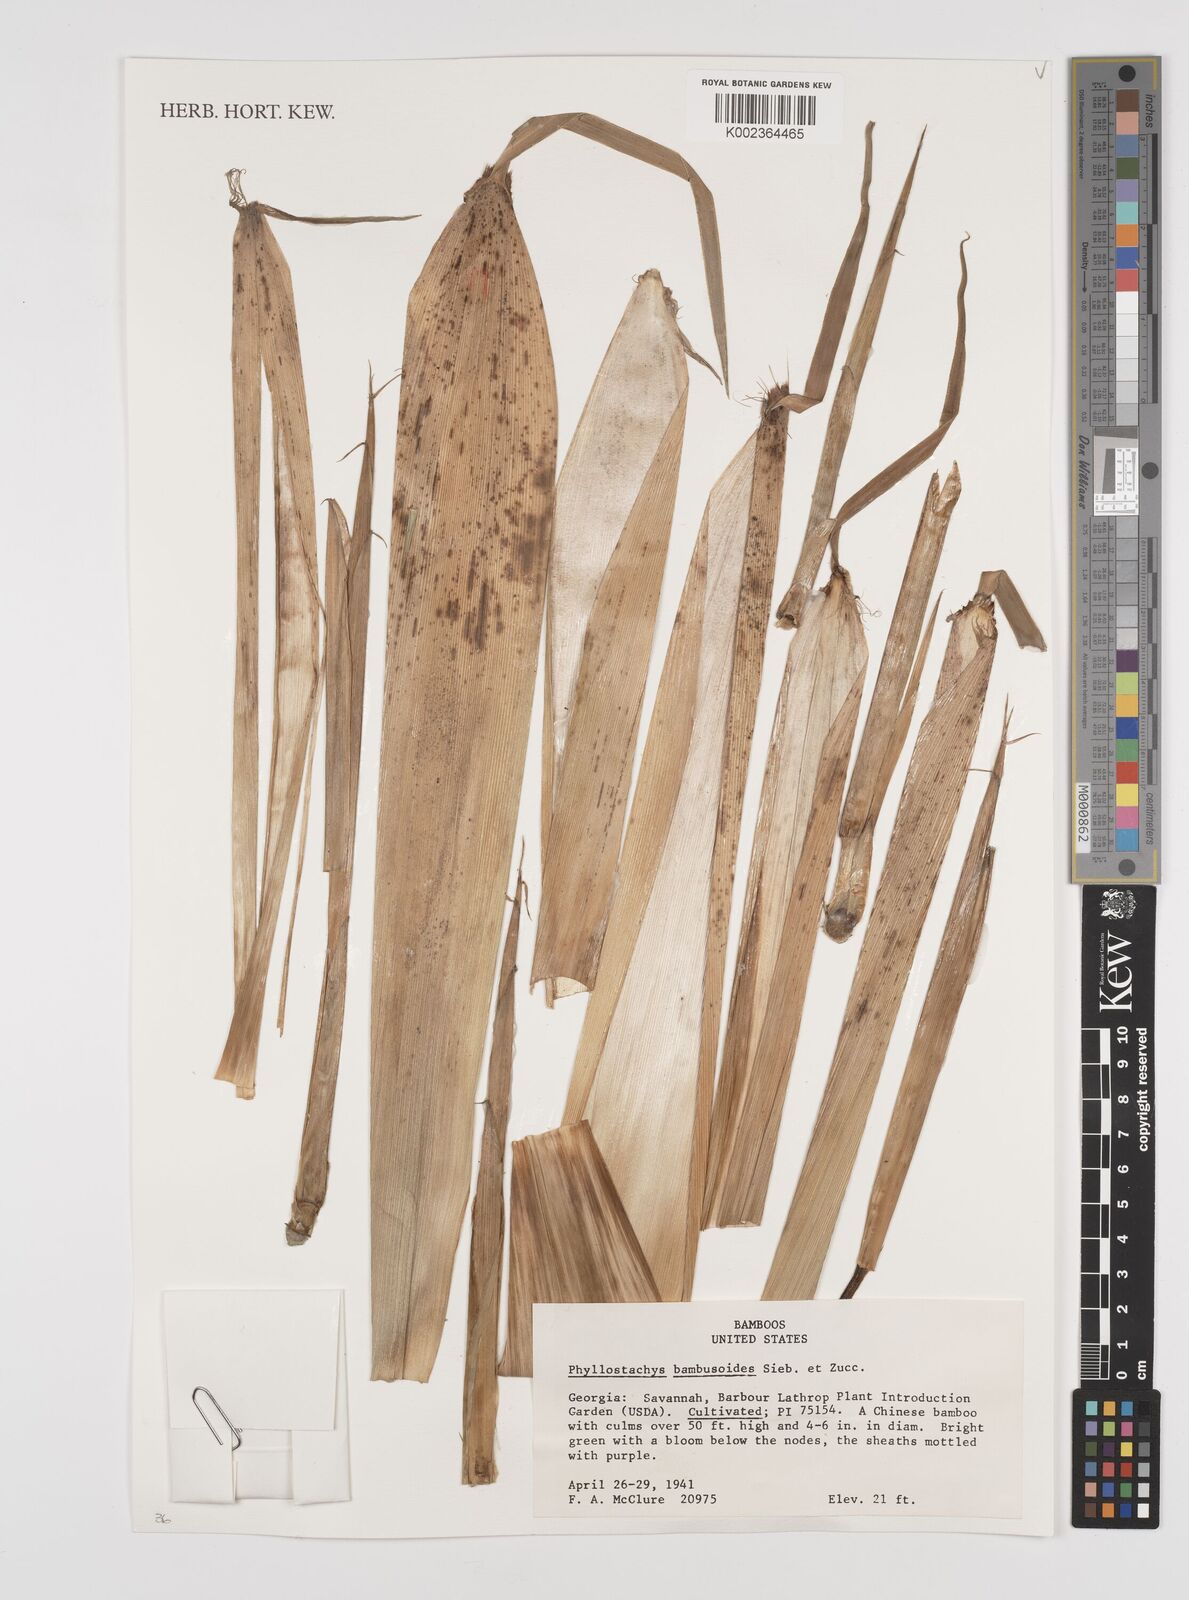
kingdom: Plantae
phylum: Tracheophyta
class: Liliopsida
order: Poales
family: Poaceae
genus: Phyllostachys
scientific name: Phyllostachys reticulata
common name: Bamboo
